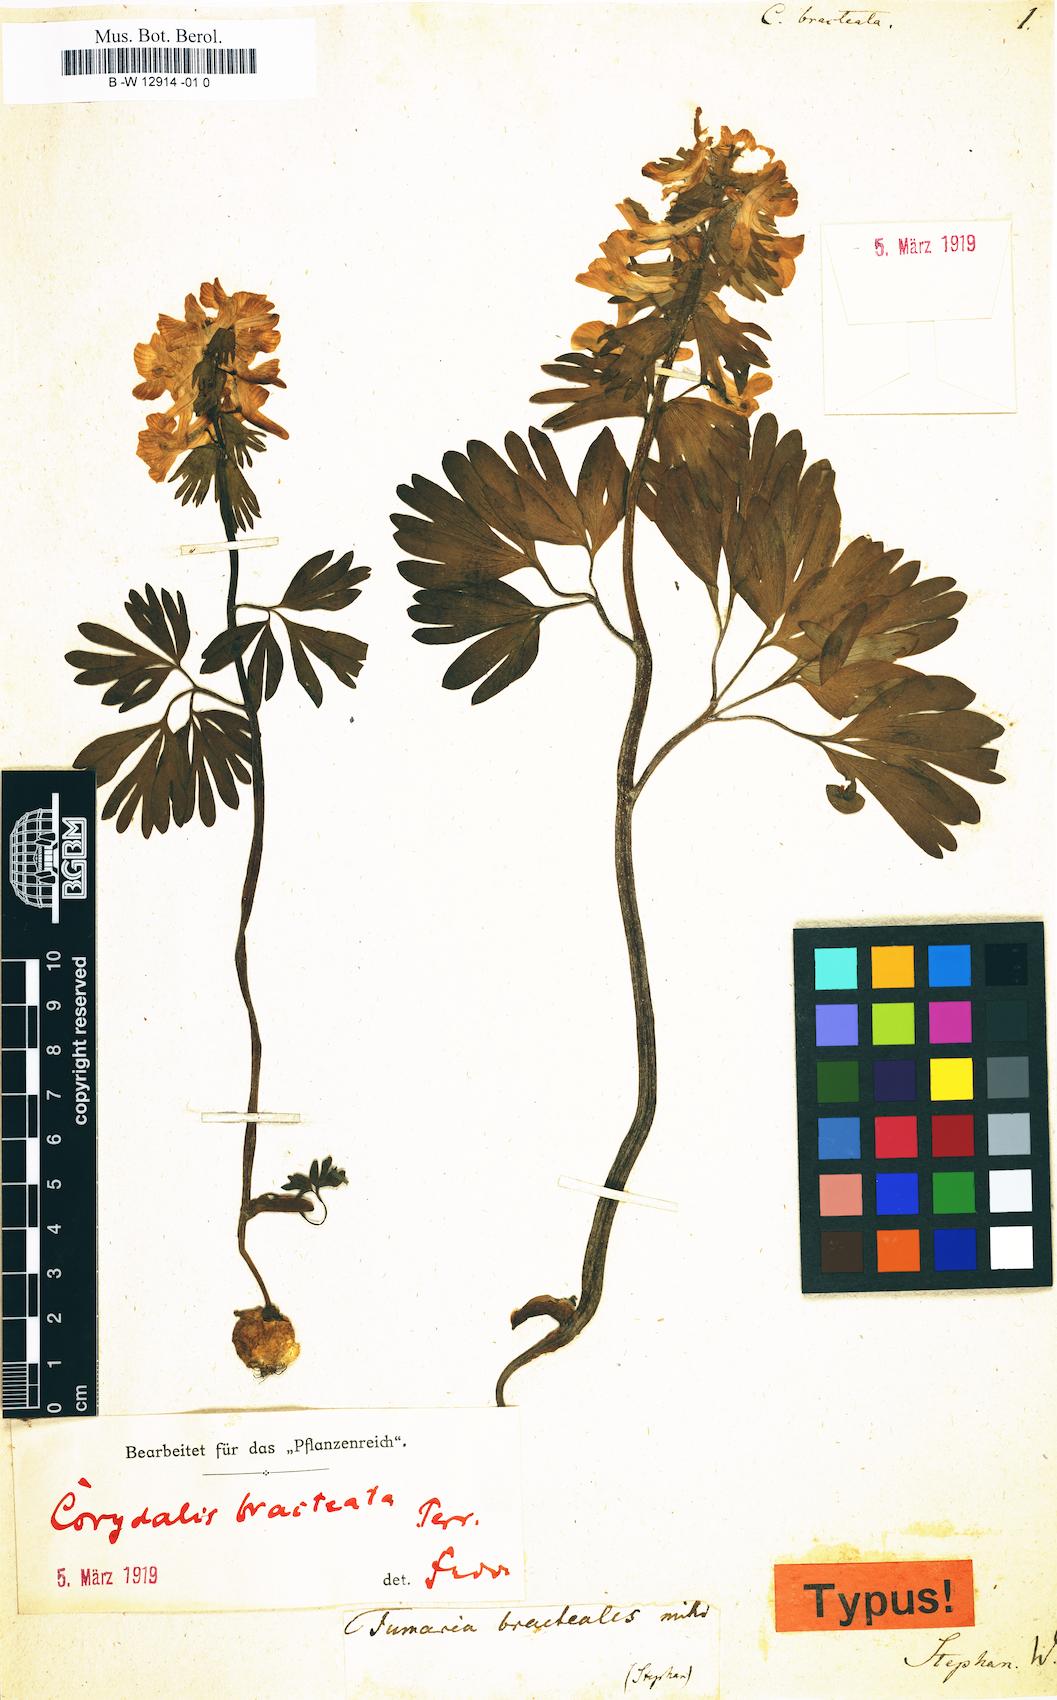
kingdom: Plantae
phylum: Tracheophyta
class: Magnoliopsida
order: Ranunculales
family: Papaveraceae
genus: Fumaria
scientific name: Fumaria bracteata
